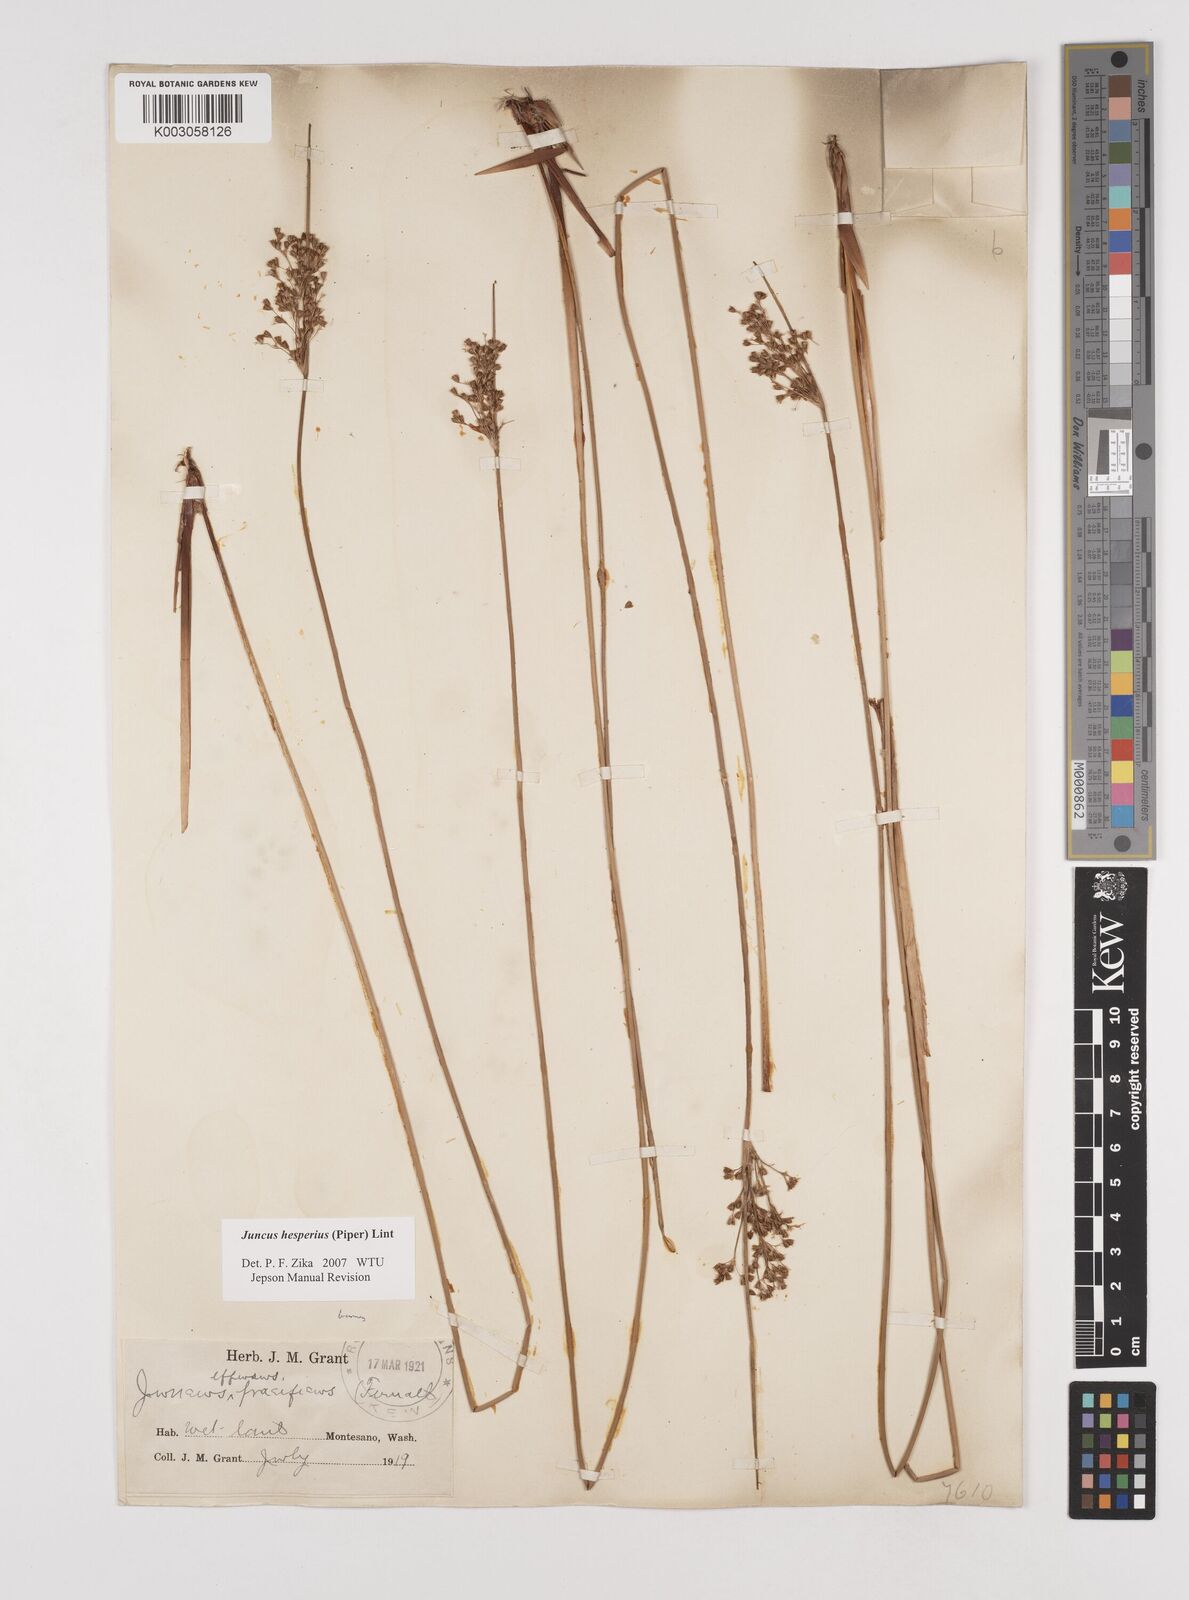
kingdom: Plantae
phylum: Tracheophyta
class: Liliopsida
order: Poales
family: Juncaceae
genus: Juncus
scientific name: Juncus hesperius
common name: Coast rush
